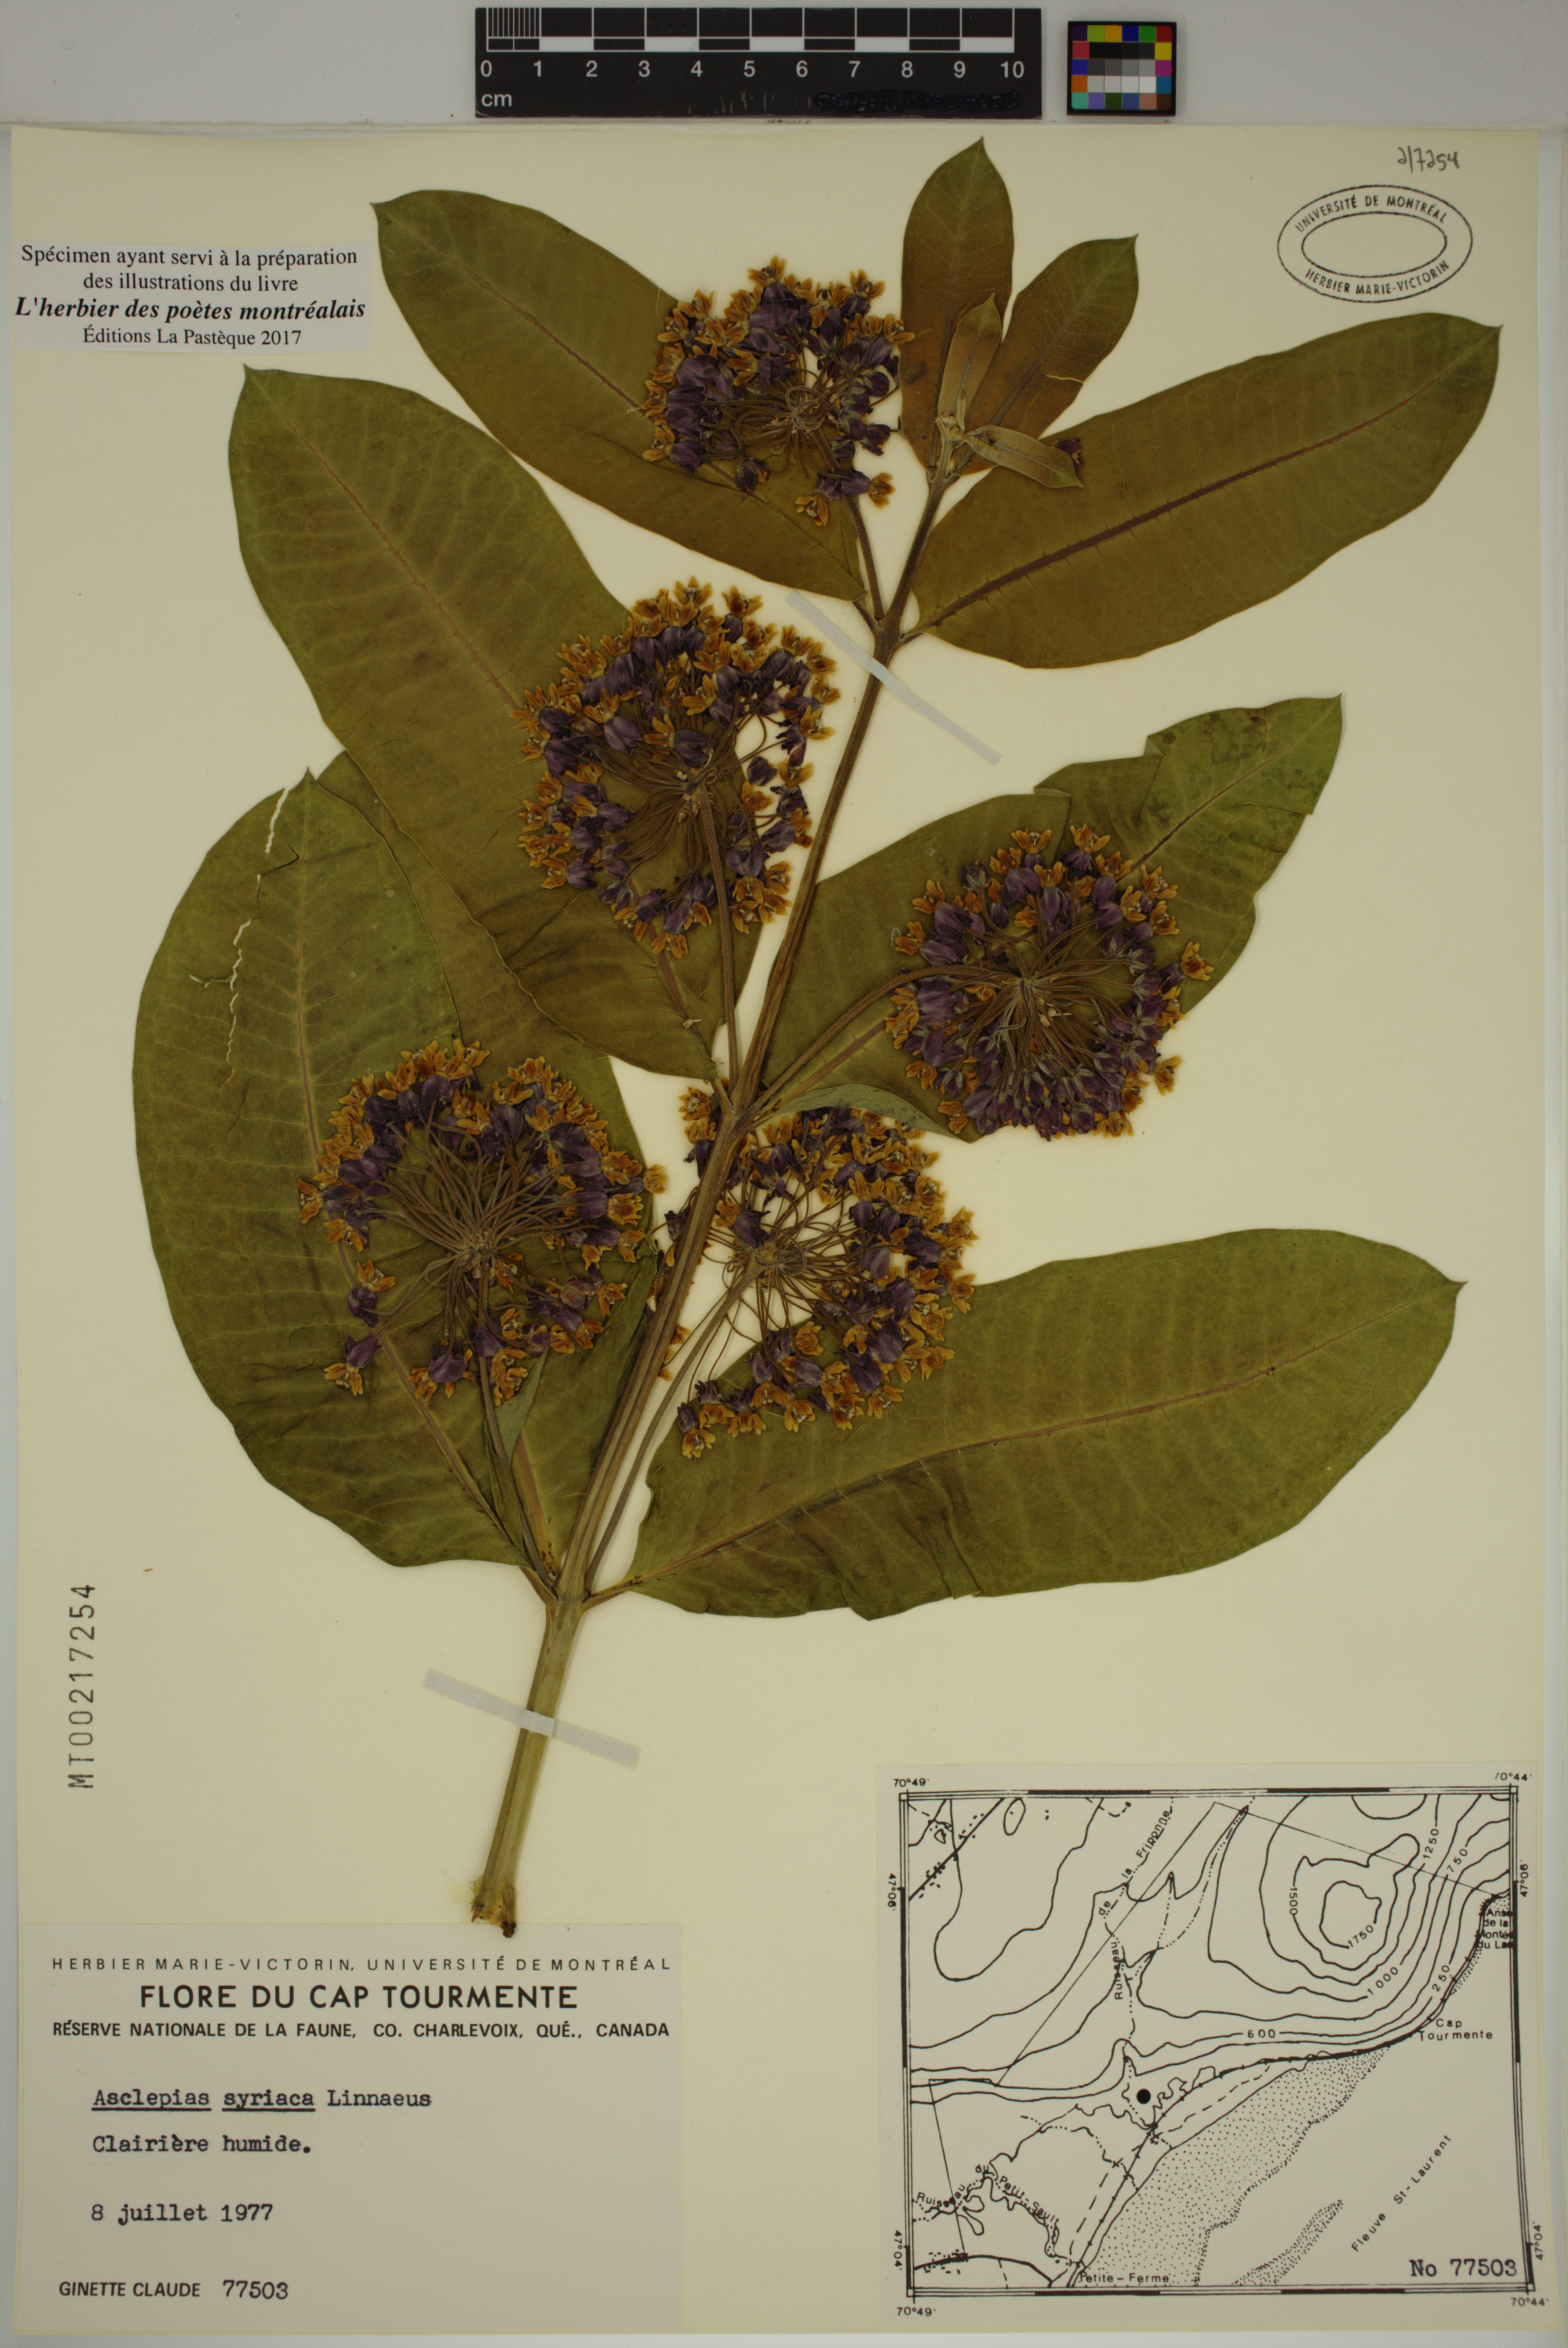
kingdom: Plantae
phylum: Tracheophyta
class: Magnoliopsida
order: Gentianales
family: Apocynaceae
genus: Asclepias
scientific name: Asclepias syriaca
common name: Common milkweed
